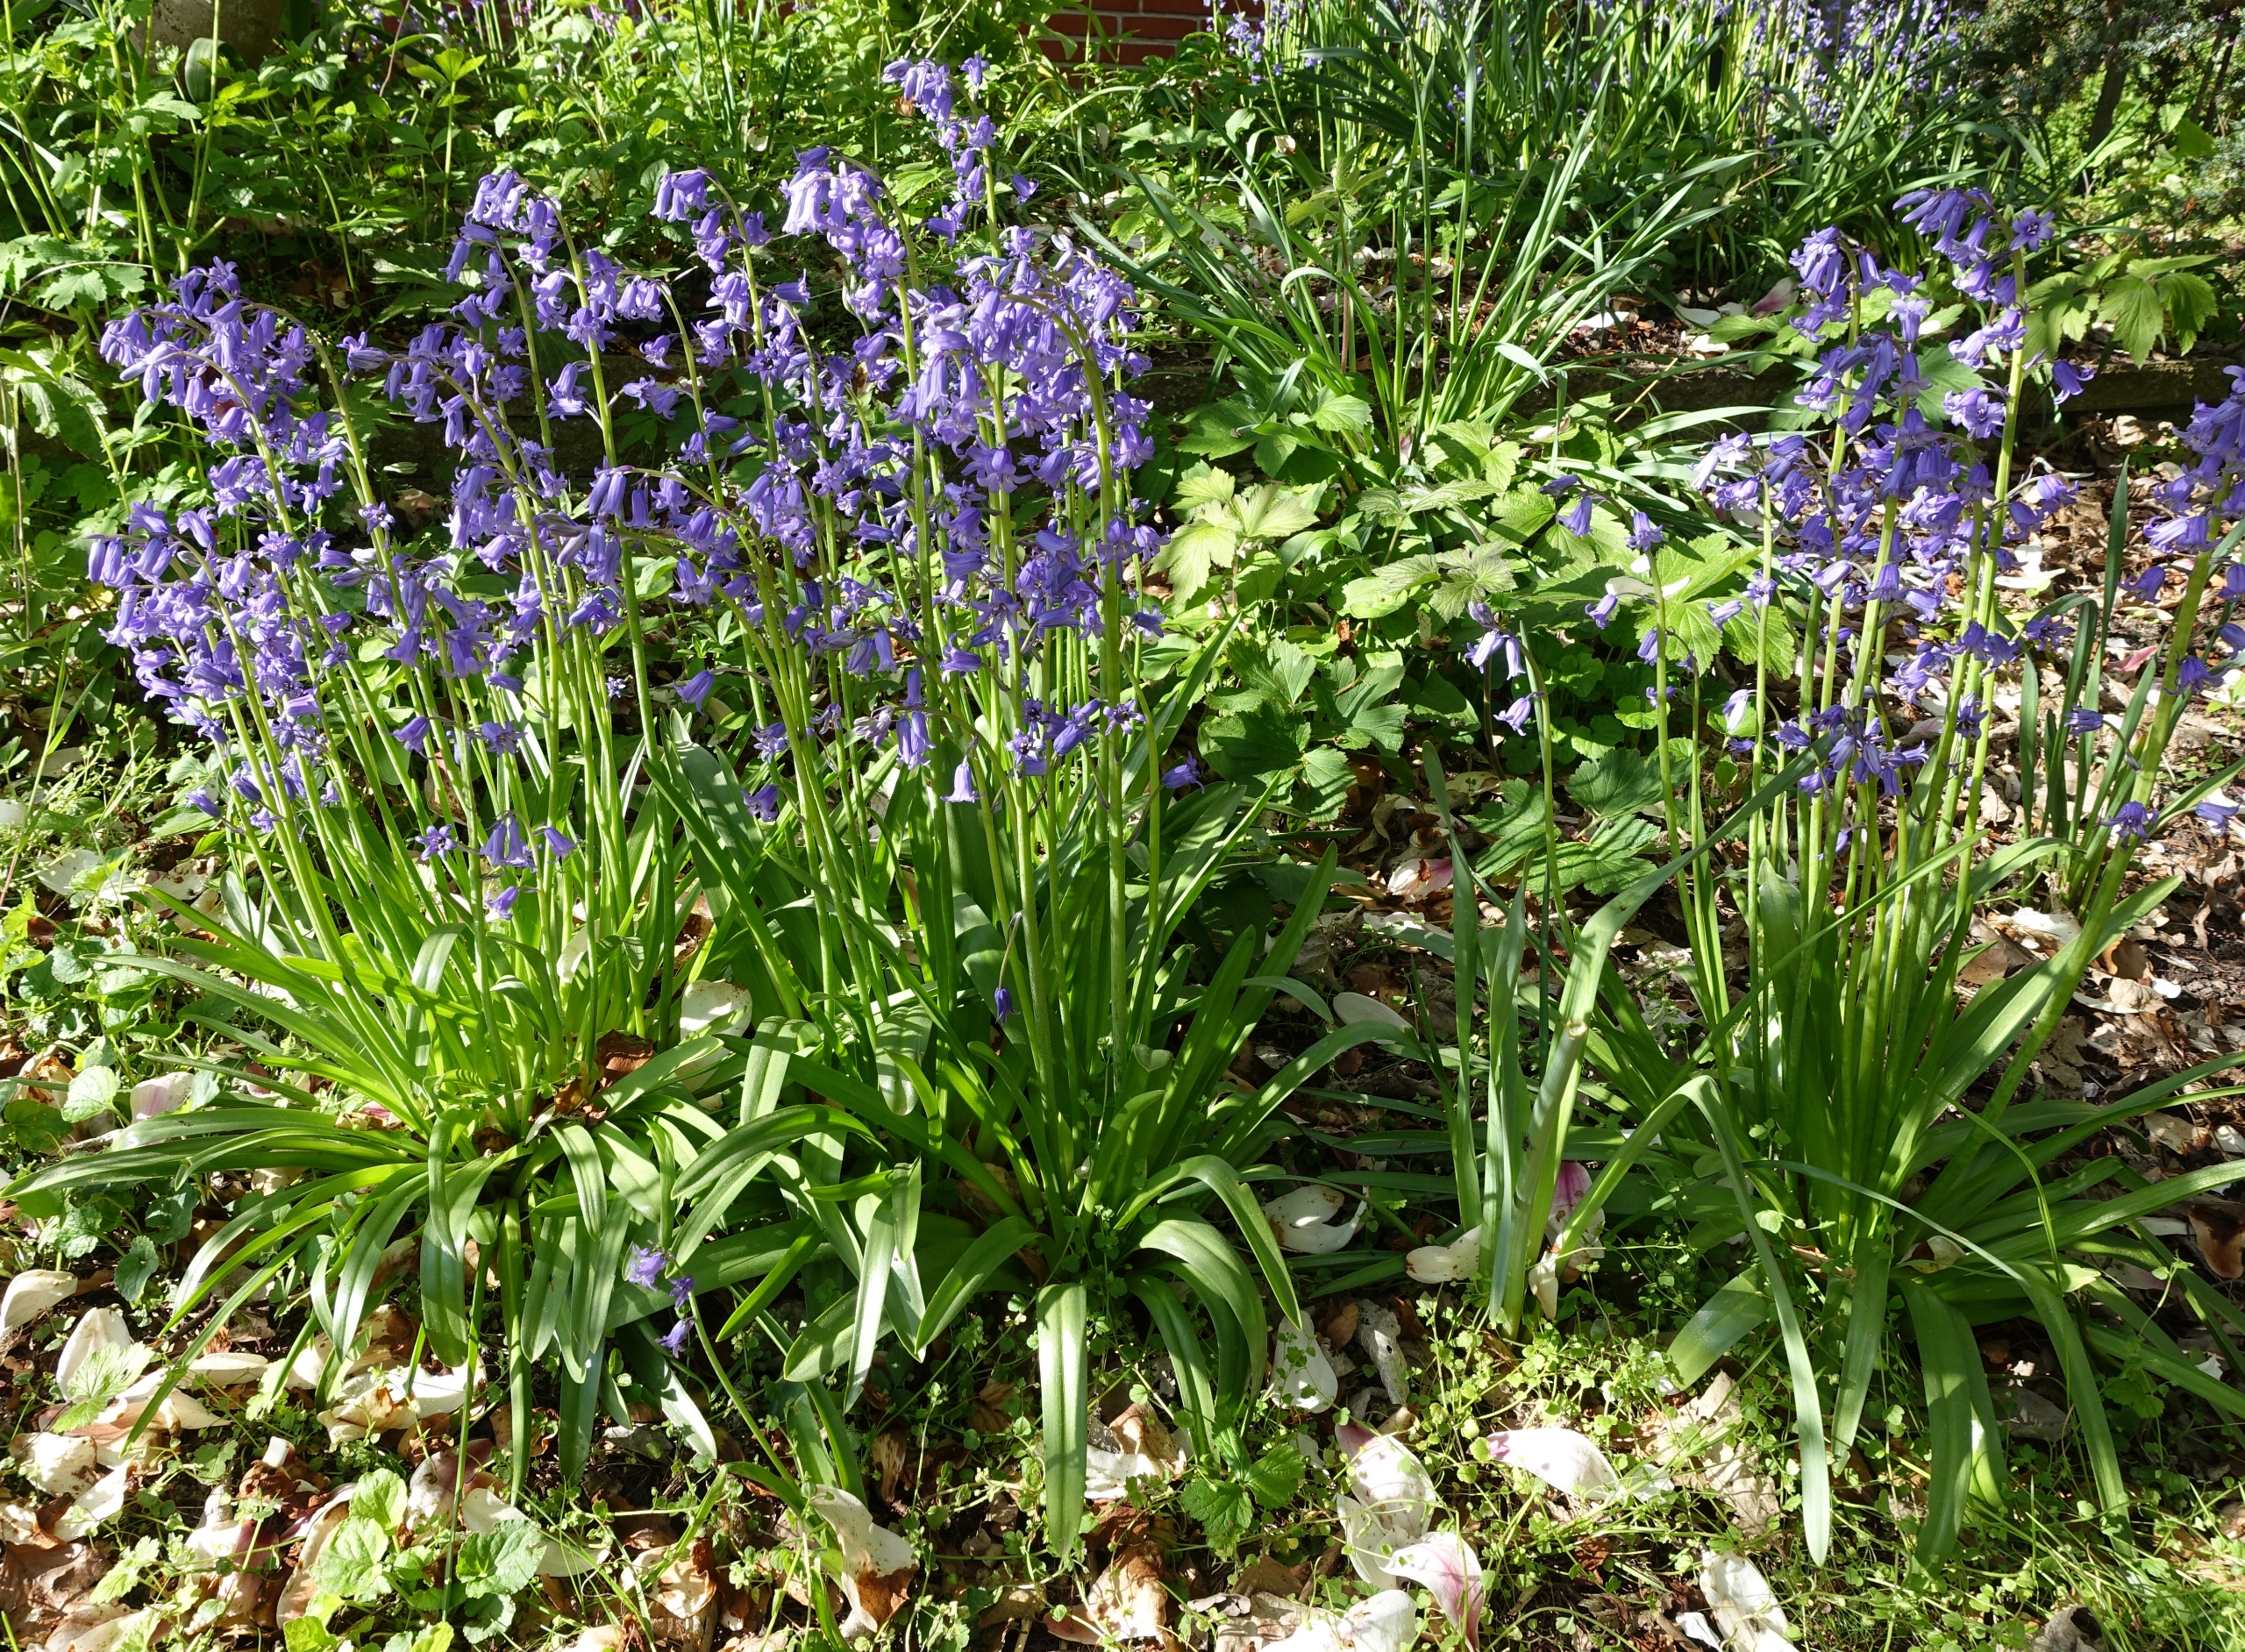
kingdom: Plantae
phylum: Tracheophyta
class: Liliopsida
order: Asparagales
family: Asparagaceae
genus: Hyacinthoides
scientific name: Hyacinthoides massartiana
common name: Hybrid-klokkeskilla
